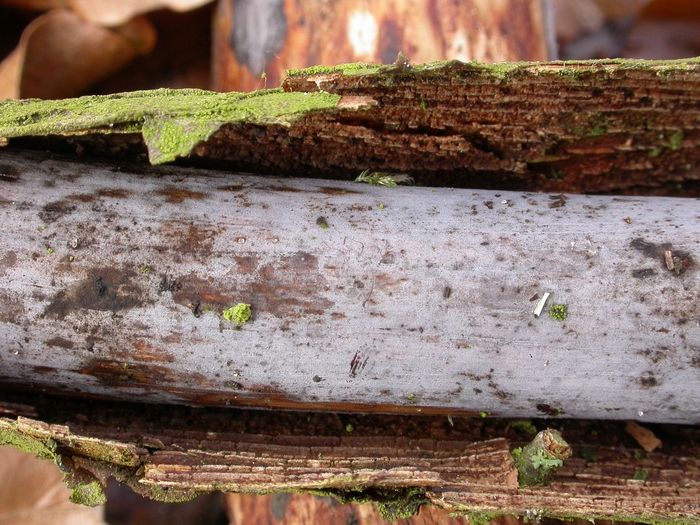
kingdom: Fungi
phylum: Basidiomycota
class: Tremellomycetes
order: Tremellales
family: Exidiaceae
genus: Exidiopsis
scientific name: Exidiopsis effusa
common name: smuk bævrehinde
